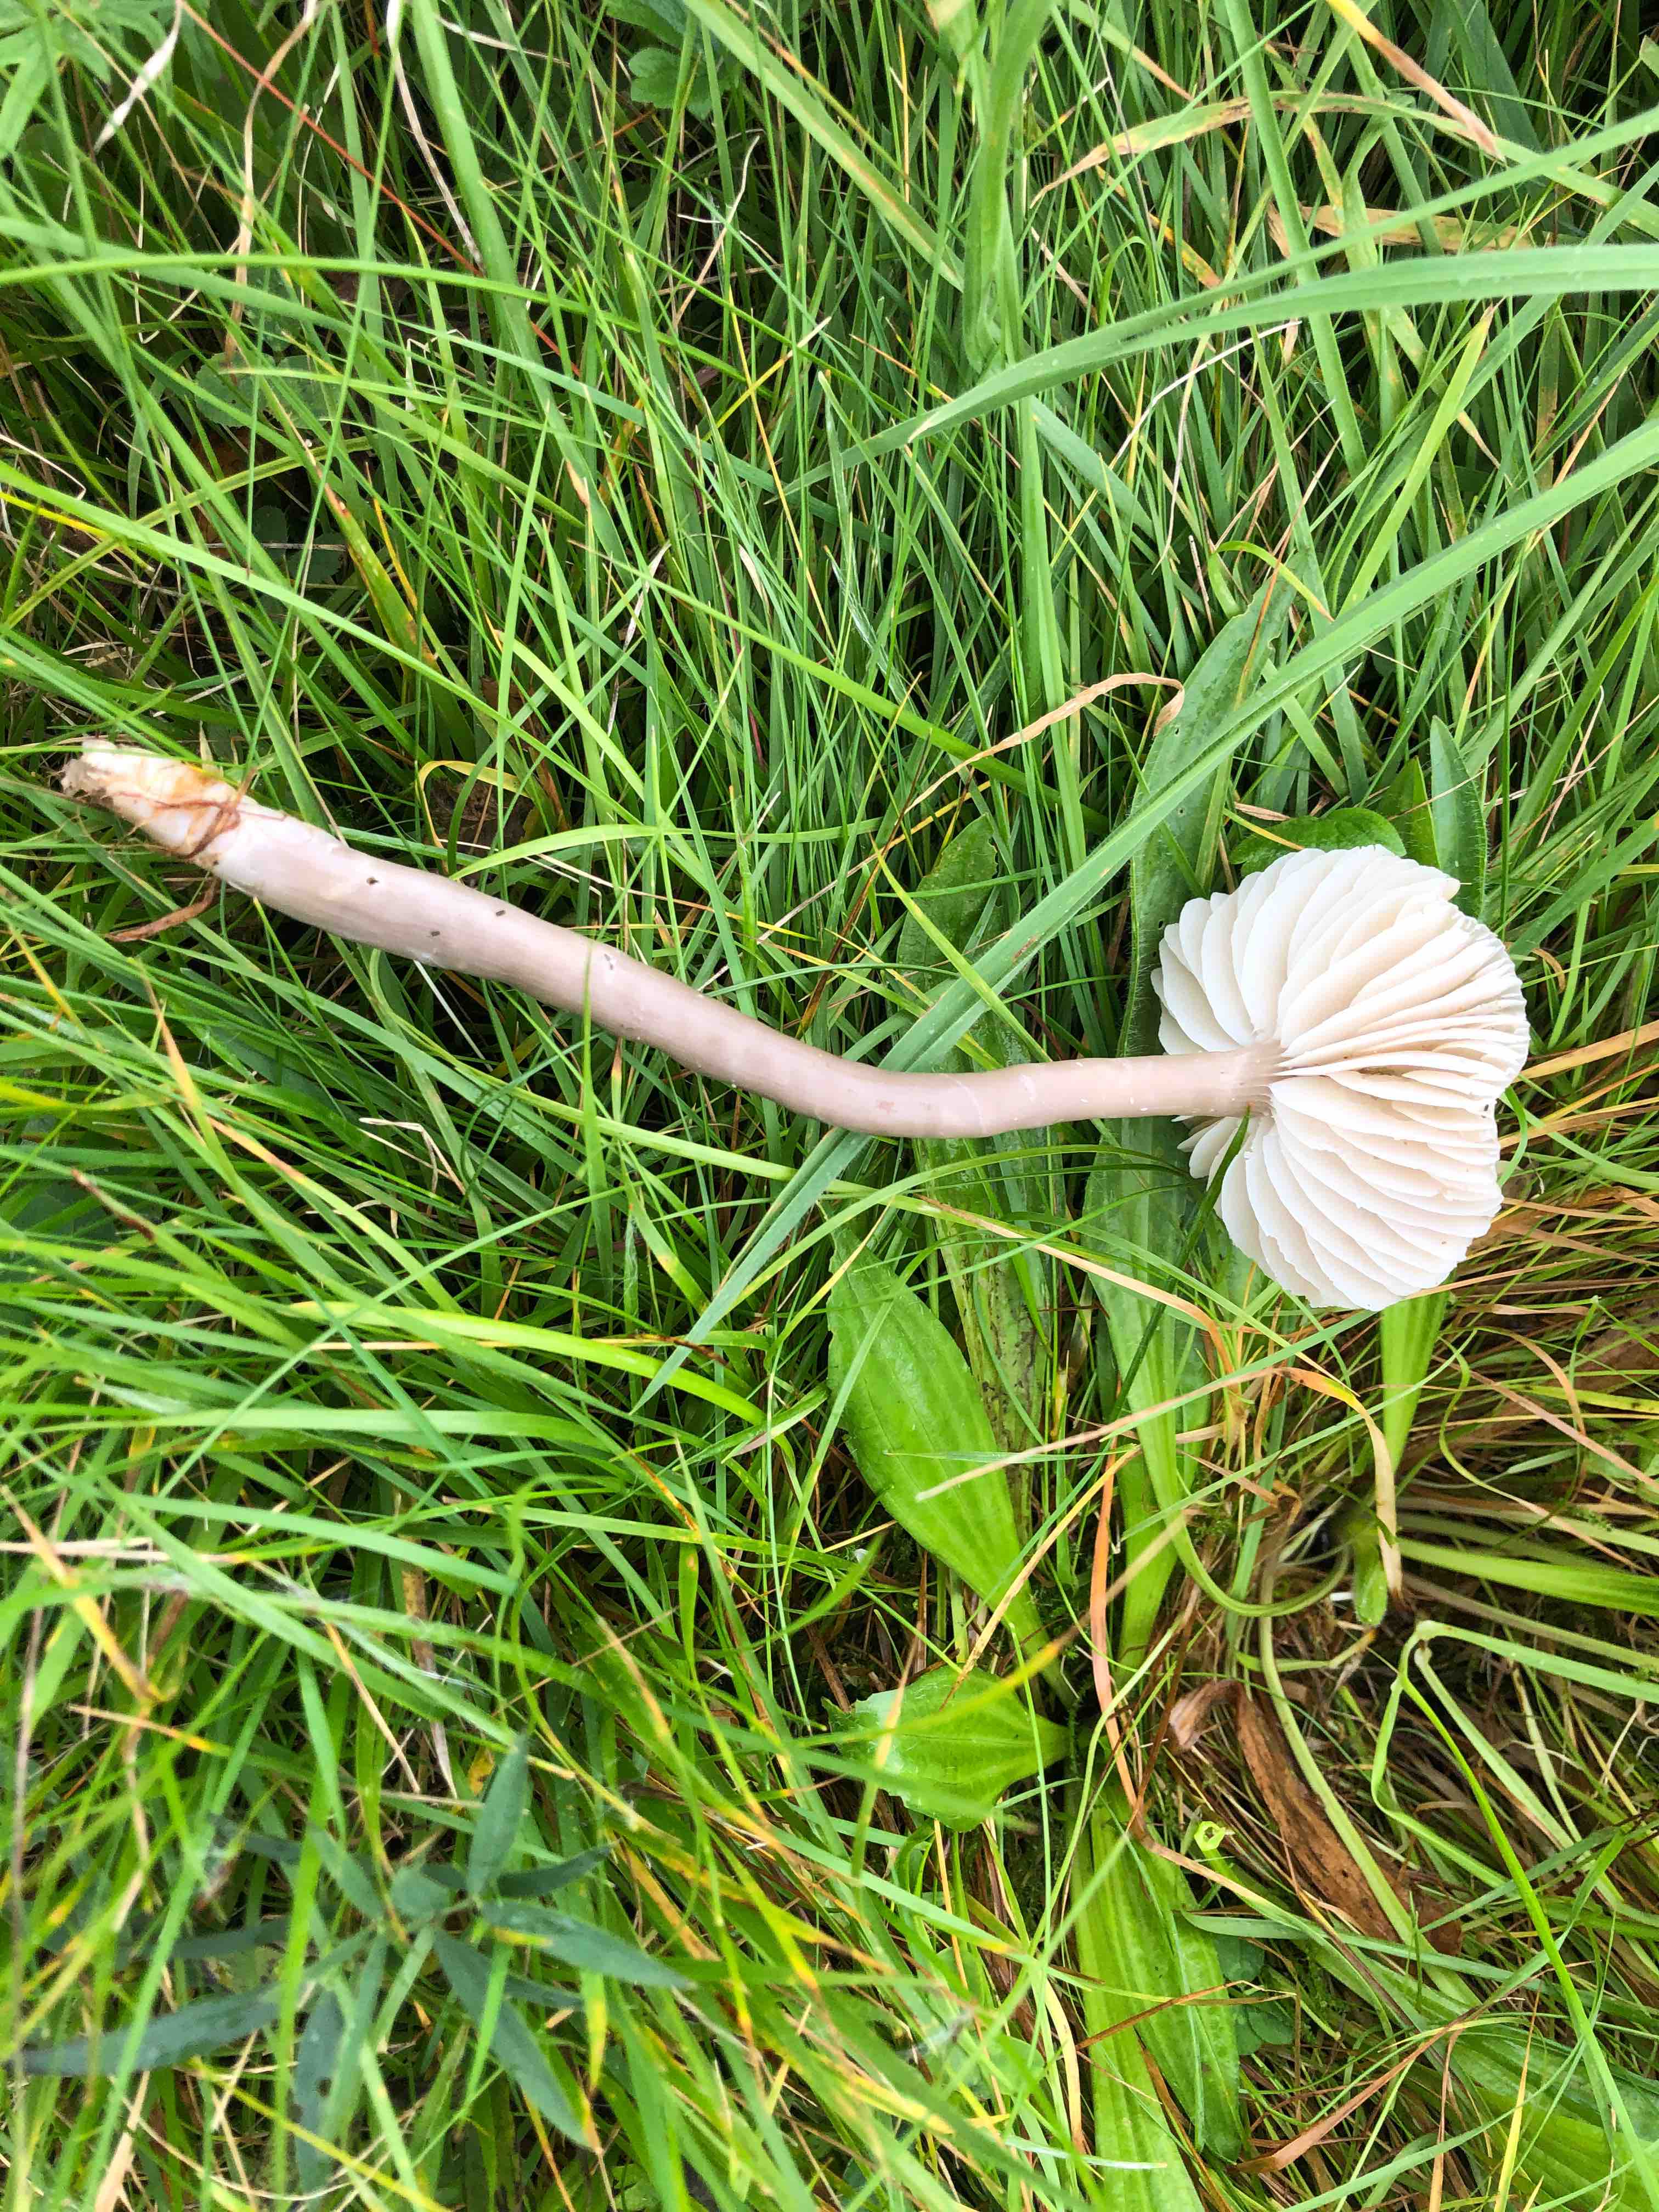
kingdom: Fungi
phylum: Basidiomycota
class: Agaricomycetes
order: Agaricales
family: Hygrophoraceae
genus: Gliophorus
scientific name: Gliophorus irrigatus
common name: slimet vokshat
